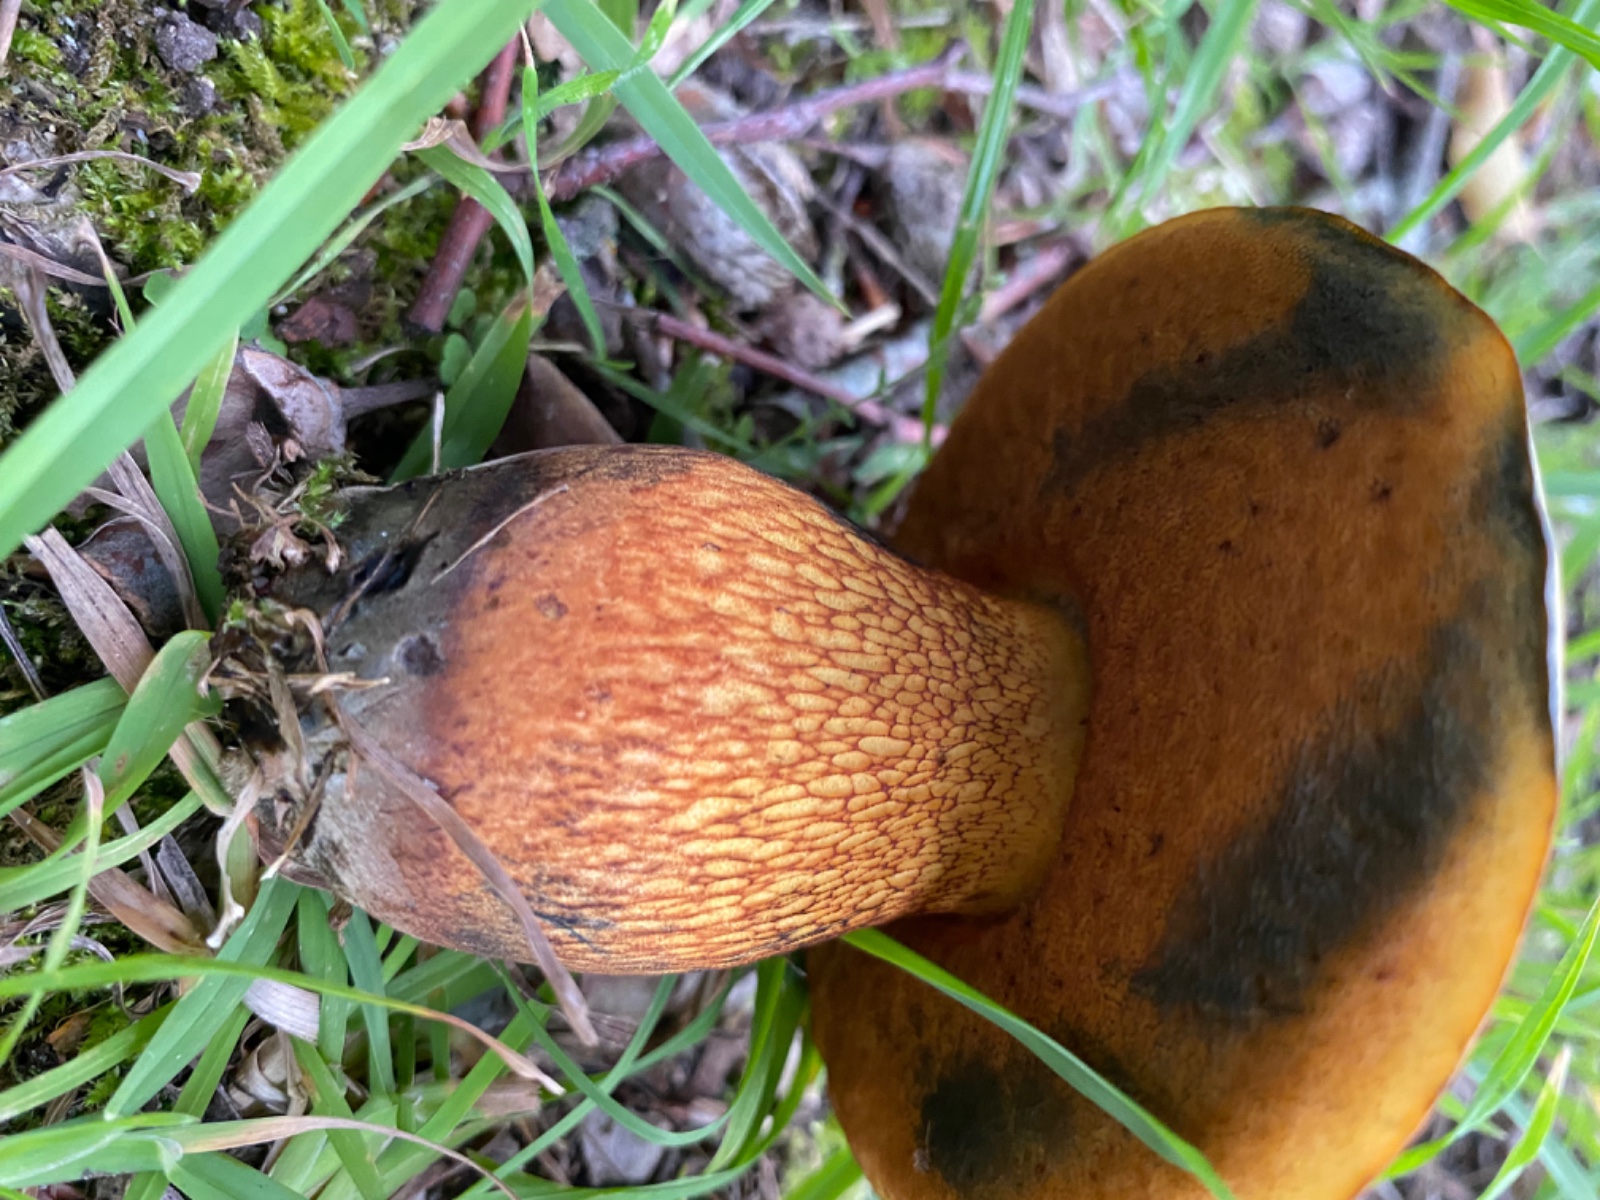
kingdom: Fungi
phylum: Basidiomycota
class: Agaricomycetes
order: Boletales
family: Boletaceae
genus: Suillellus
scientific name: Suillellus luridus
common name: netstokket indigorørhat
